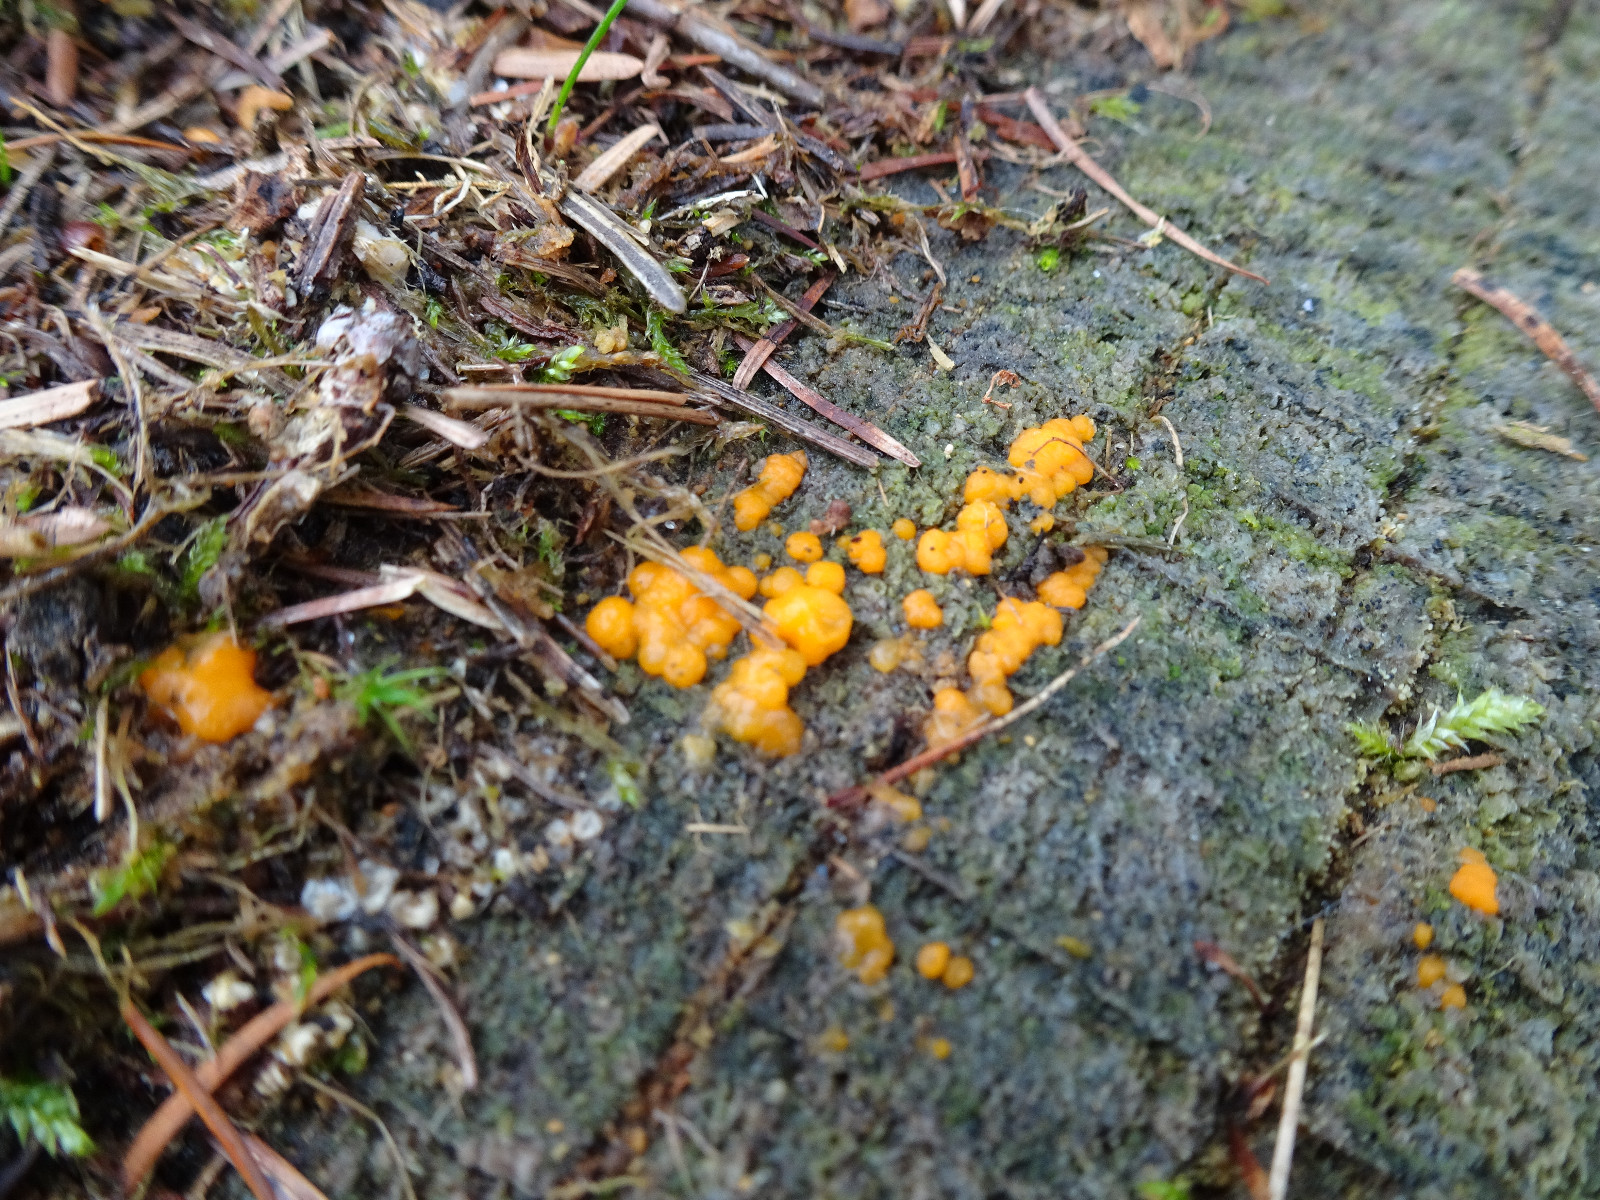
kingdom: Fungi
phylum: Basidiomycota
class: Dacrymycetes
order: Dacrymycetales
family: Dacrymycetaceae
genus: Dacrymyces
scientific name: Dacrymyces stillatus
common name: almindelig tåresvamp
